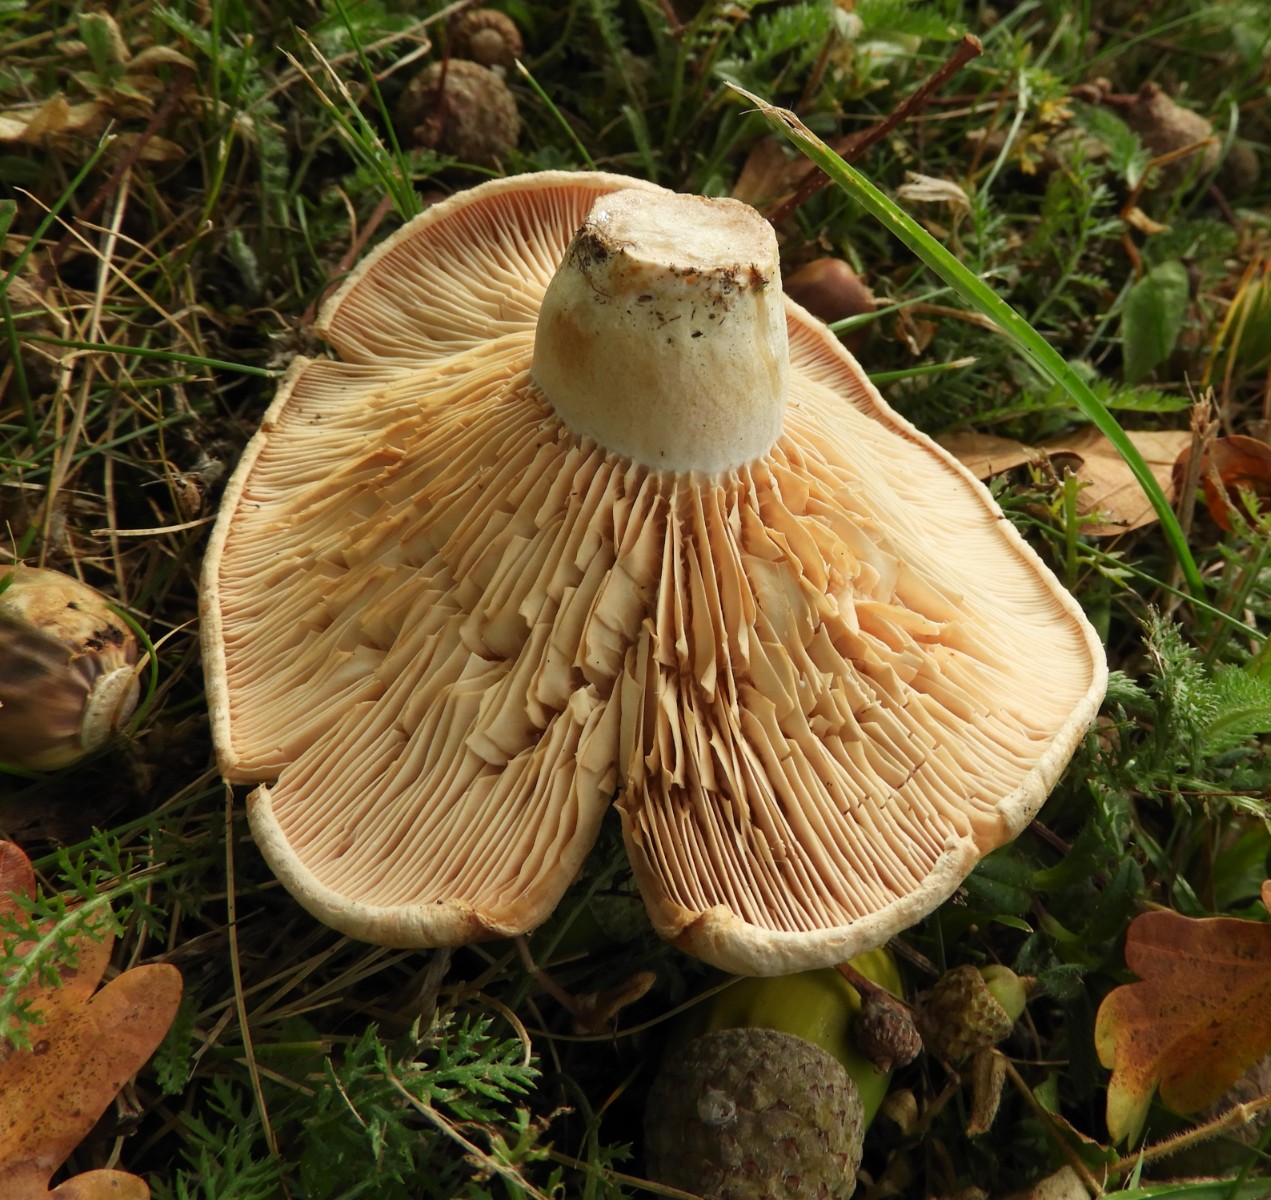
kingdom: Fungi
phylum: Basidiomycota
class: Agaricomycetes
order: Russulales
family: Russulaceae
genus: Lactarius
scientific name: Lactarius
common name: mælkehat
